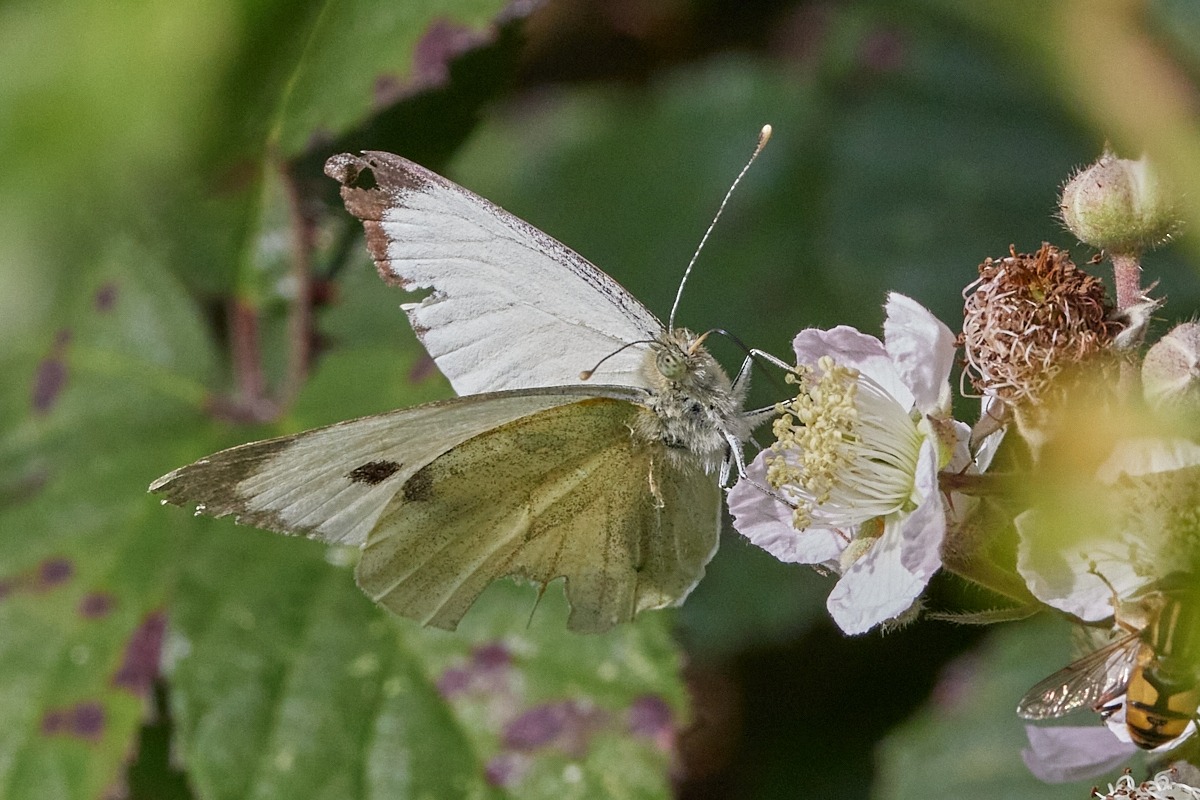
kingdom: Animalia
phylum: Arthropoda
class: Insecta
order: Lepidoptera
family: Pieridae
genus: Pieris
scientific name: Pieris brassicae
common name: Stor kålsommerfugl
